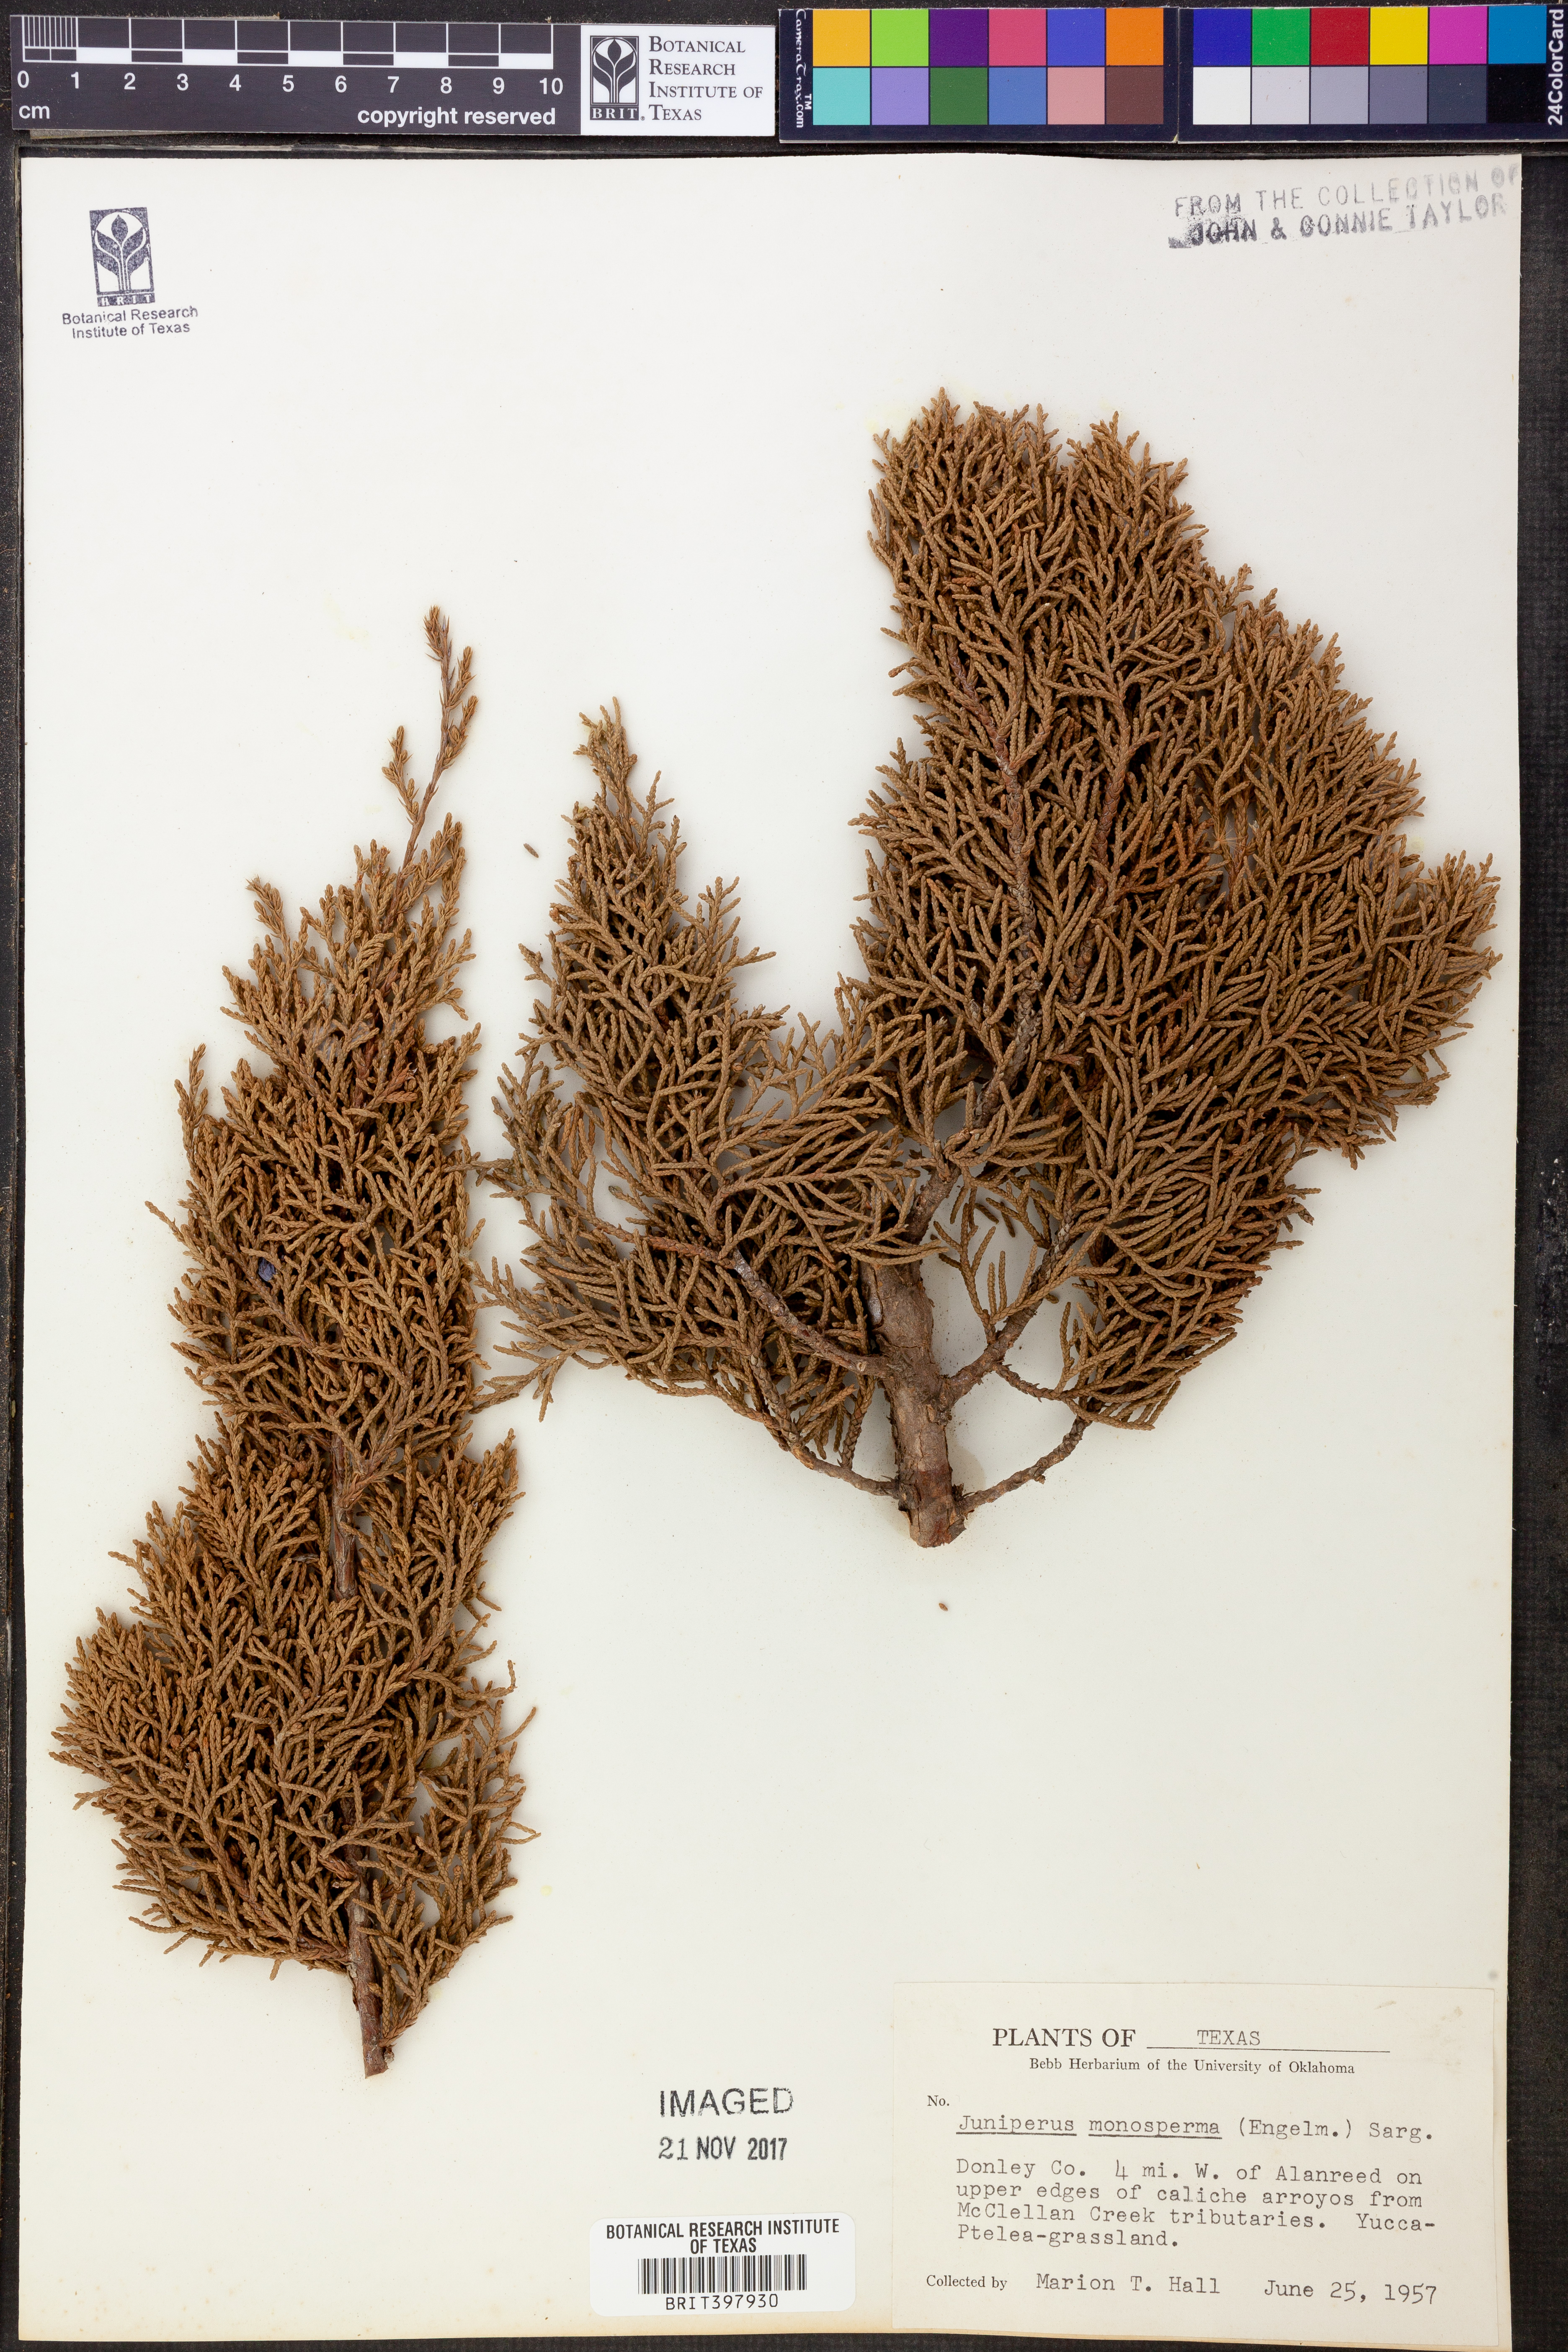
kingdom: Plantae
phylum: Tracheophyta
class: Pinopsida
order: Pinales
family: Cupressaceae
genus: Juniperus
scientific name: Juniperus monosperma
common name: One-seed juniper
